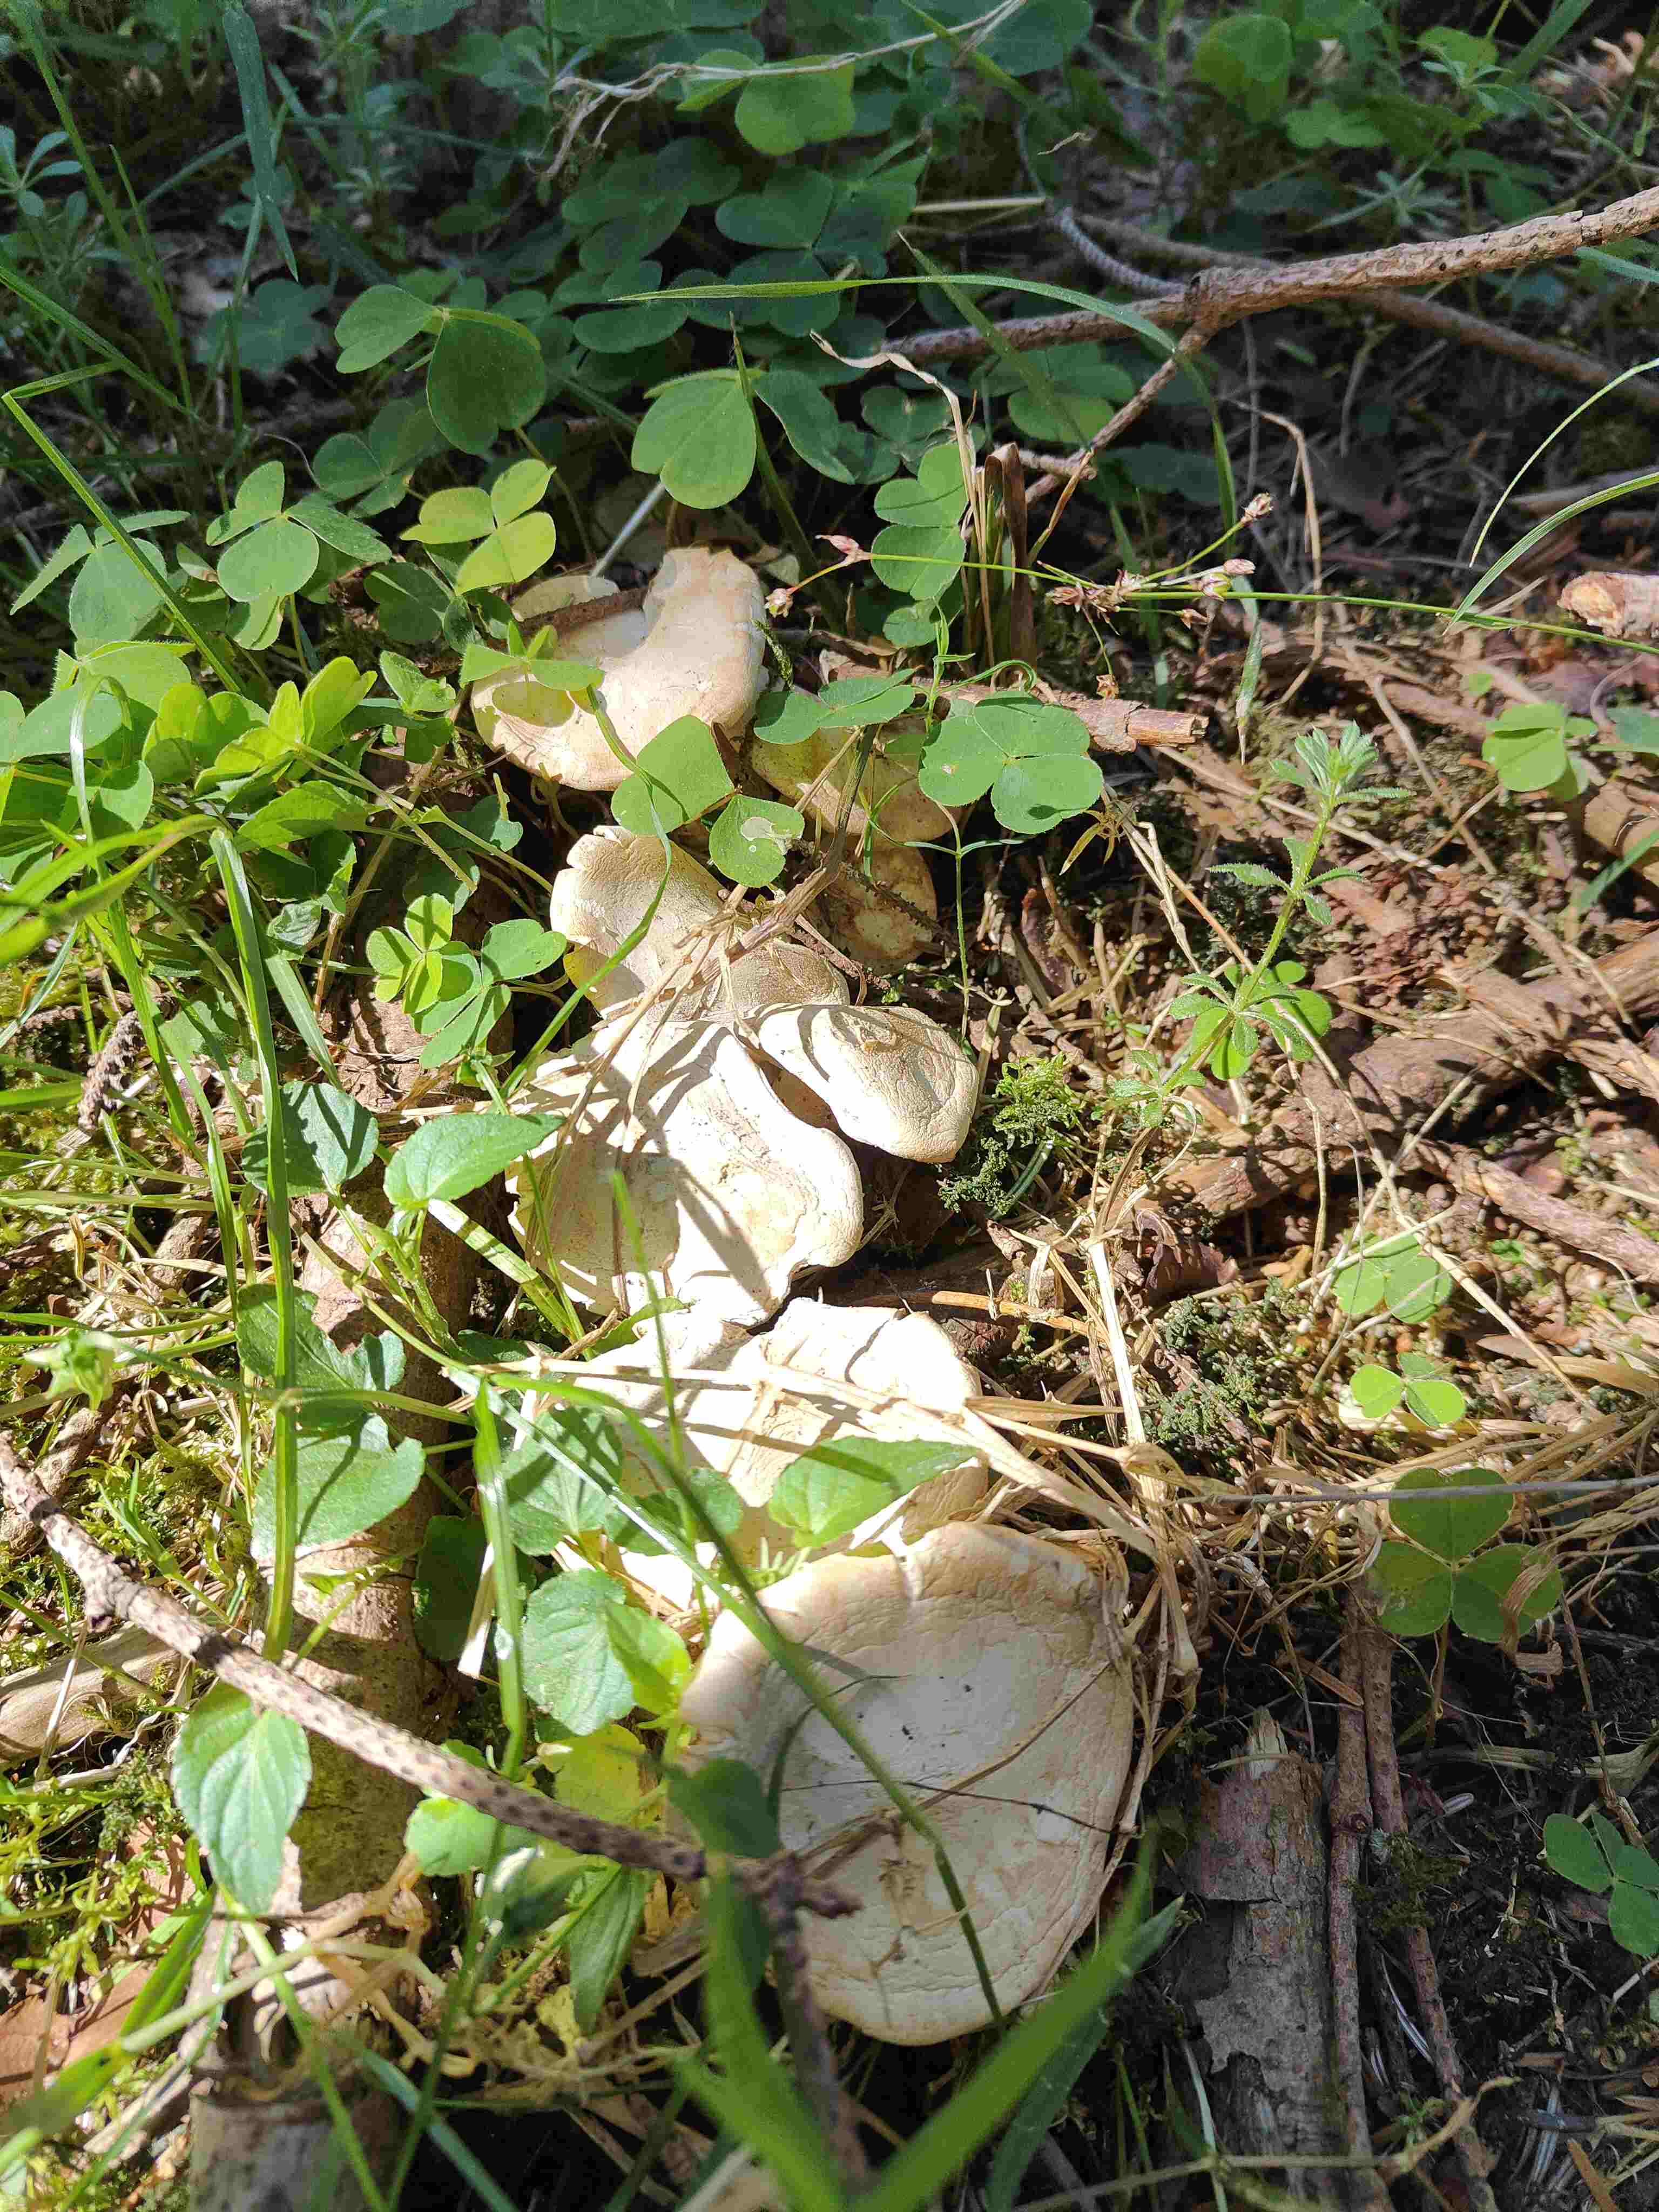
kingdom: Fungi
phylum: Basidiomycota
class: Agaricomycetes
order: Agaricales
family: Lyophyllaceae
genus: Calocybe
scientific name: Calocybe gambosa
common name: vårmusseron
